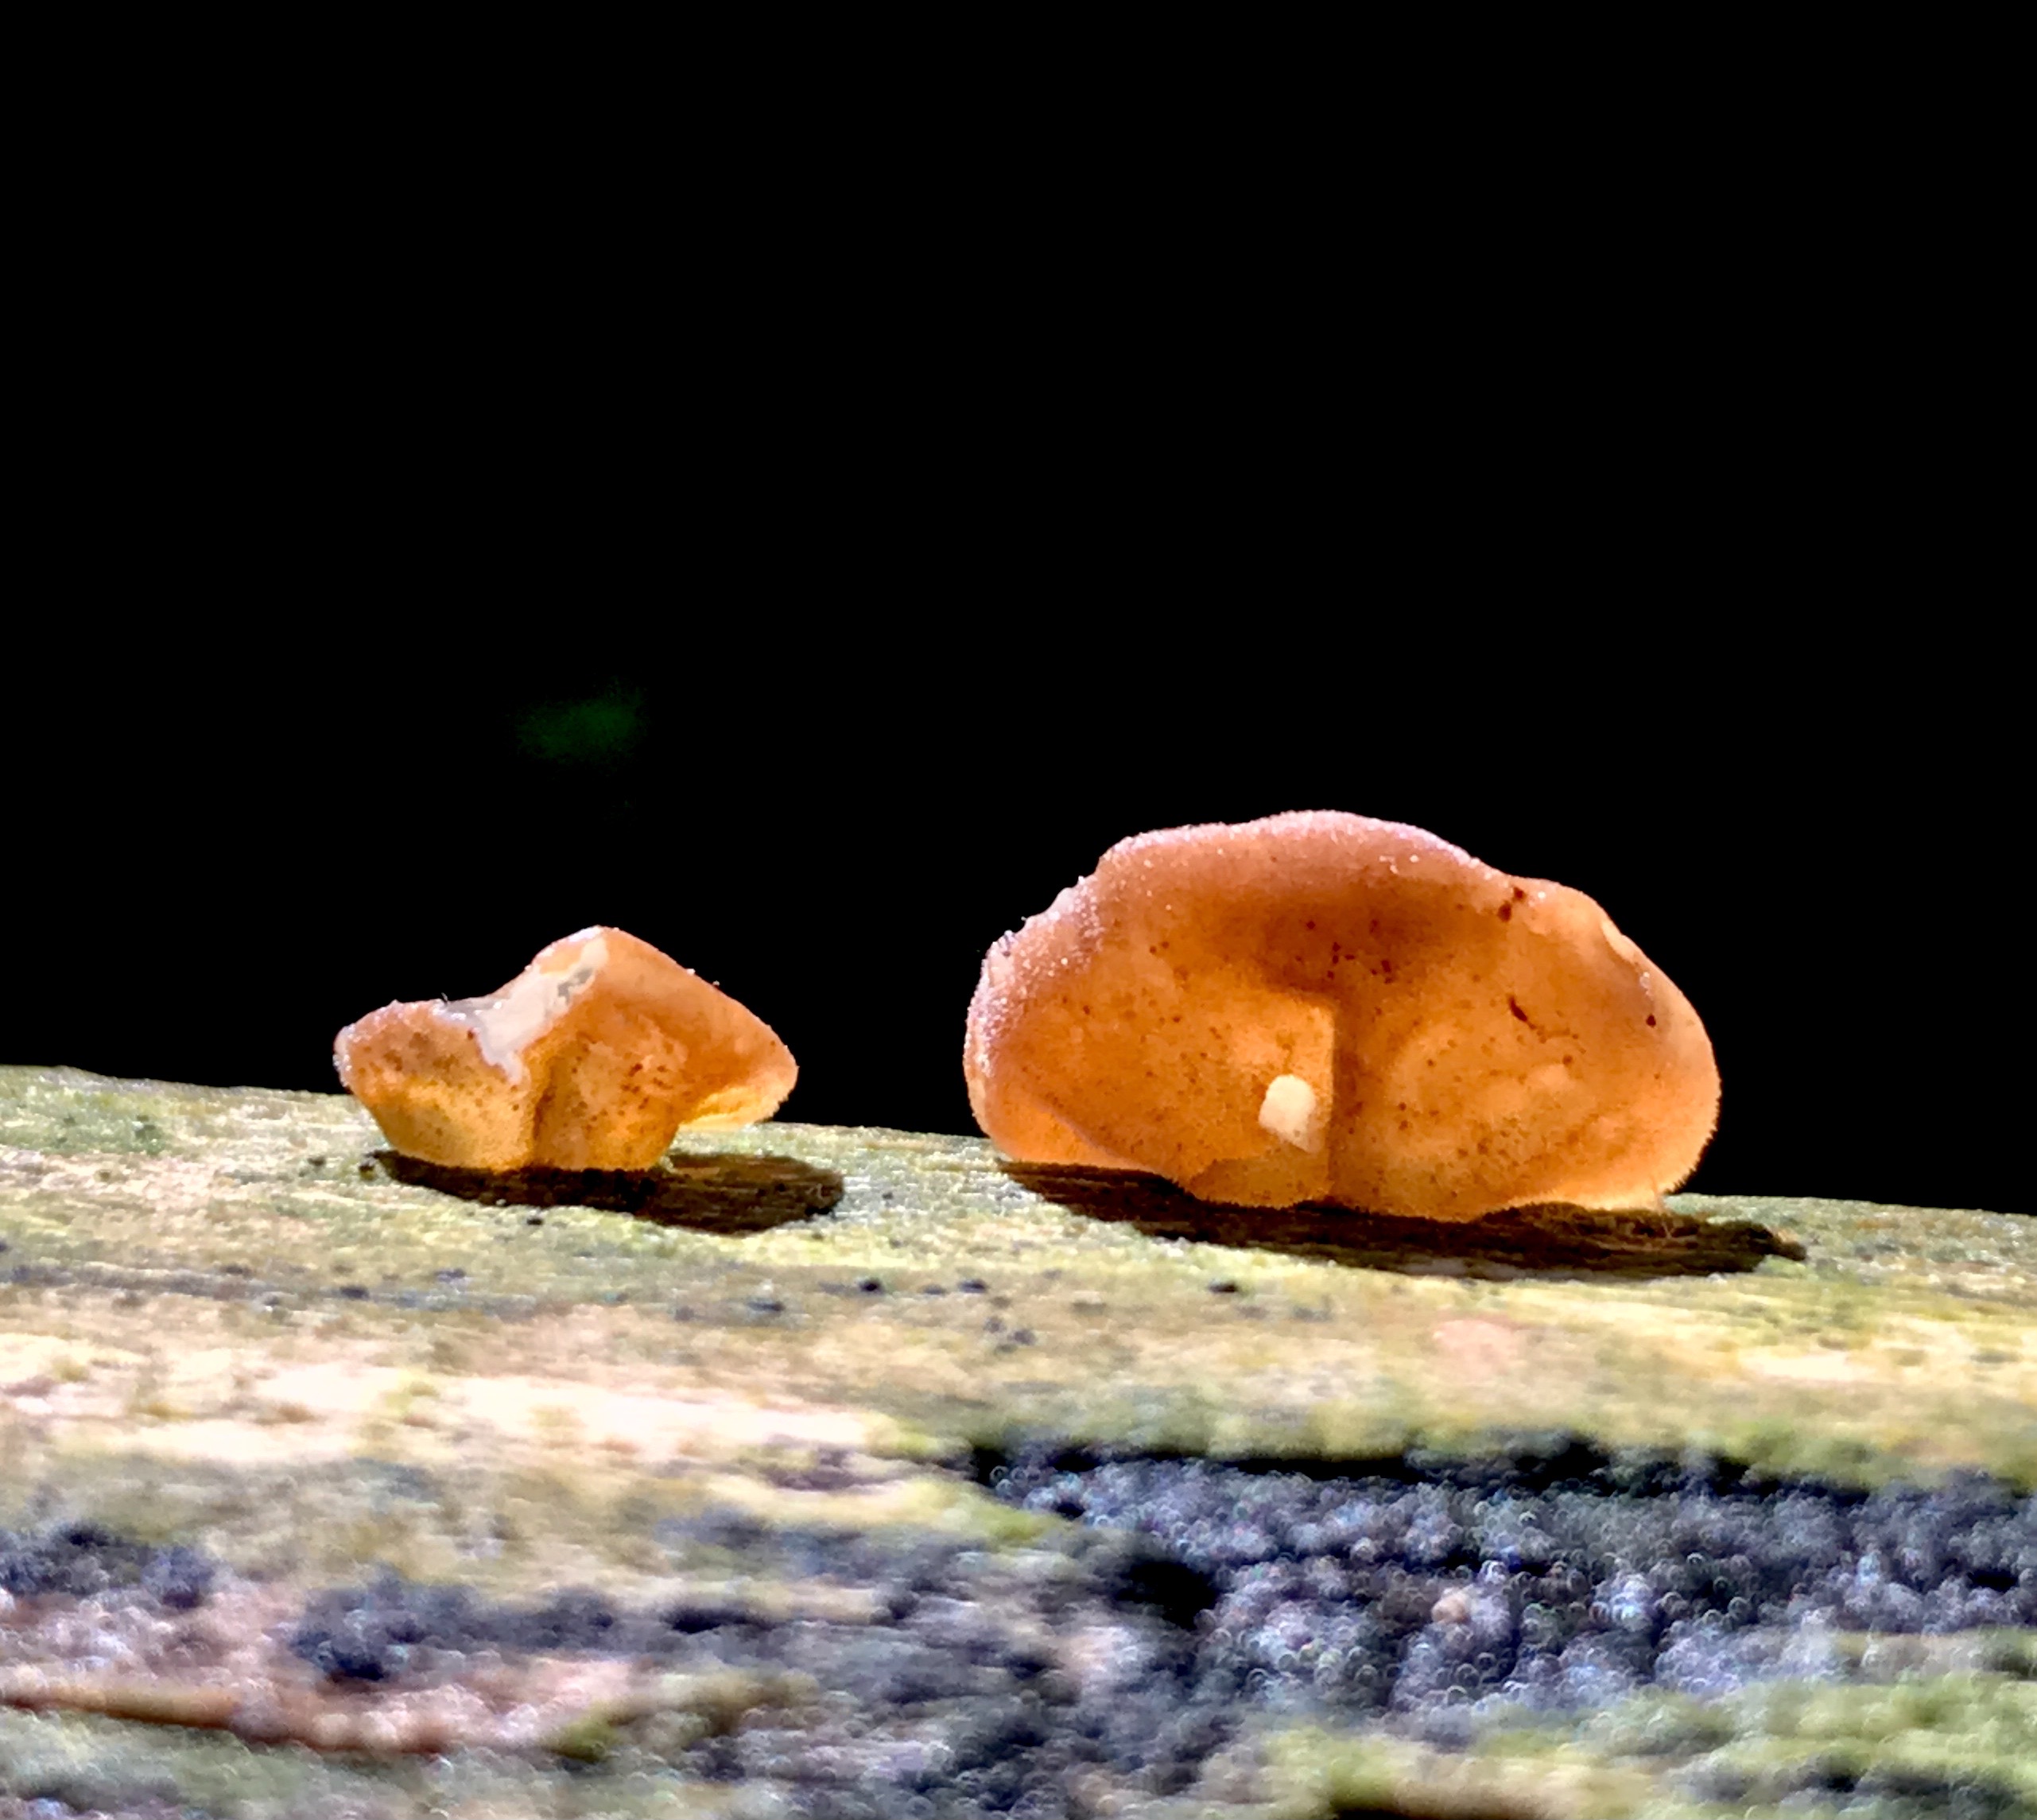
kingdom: Fungi
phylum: Basidiomycota
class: Agaricomycetes
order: Auriculariales
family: Auriculariaceae
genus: Auricularia
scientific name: Auricularia auricula-judae
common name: almindelig judasøre
